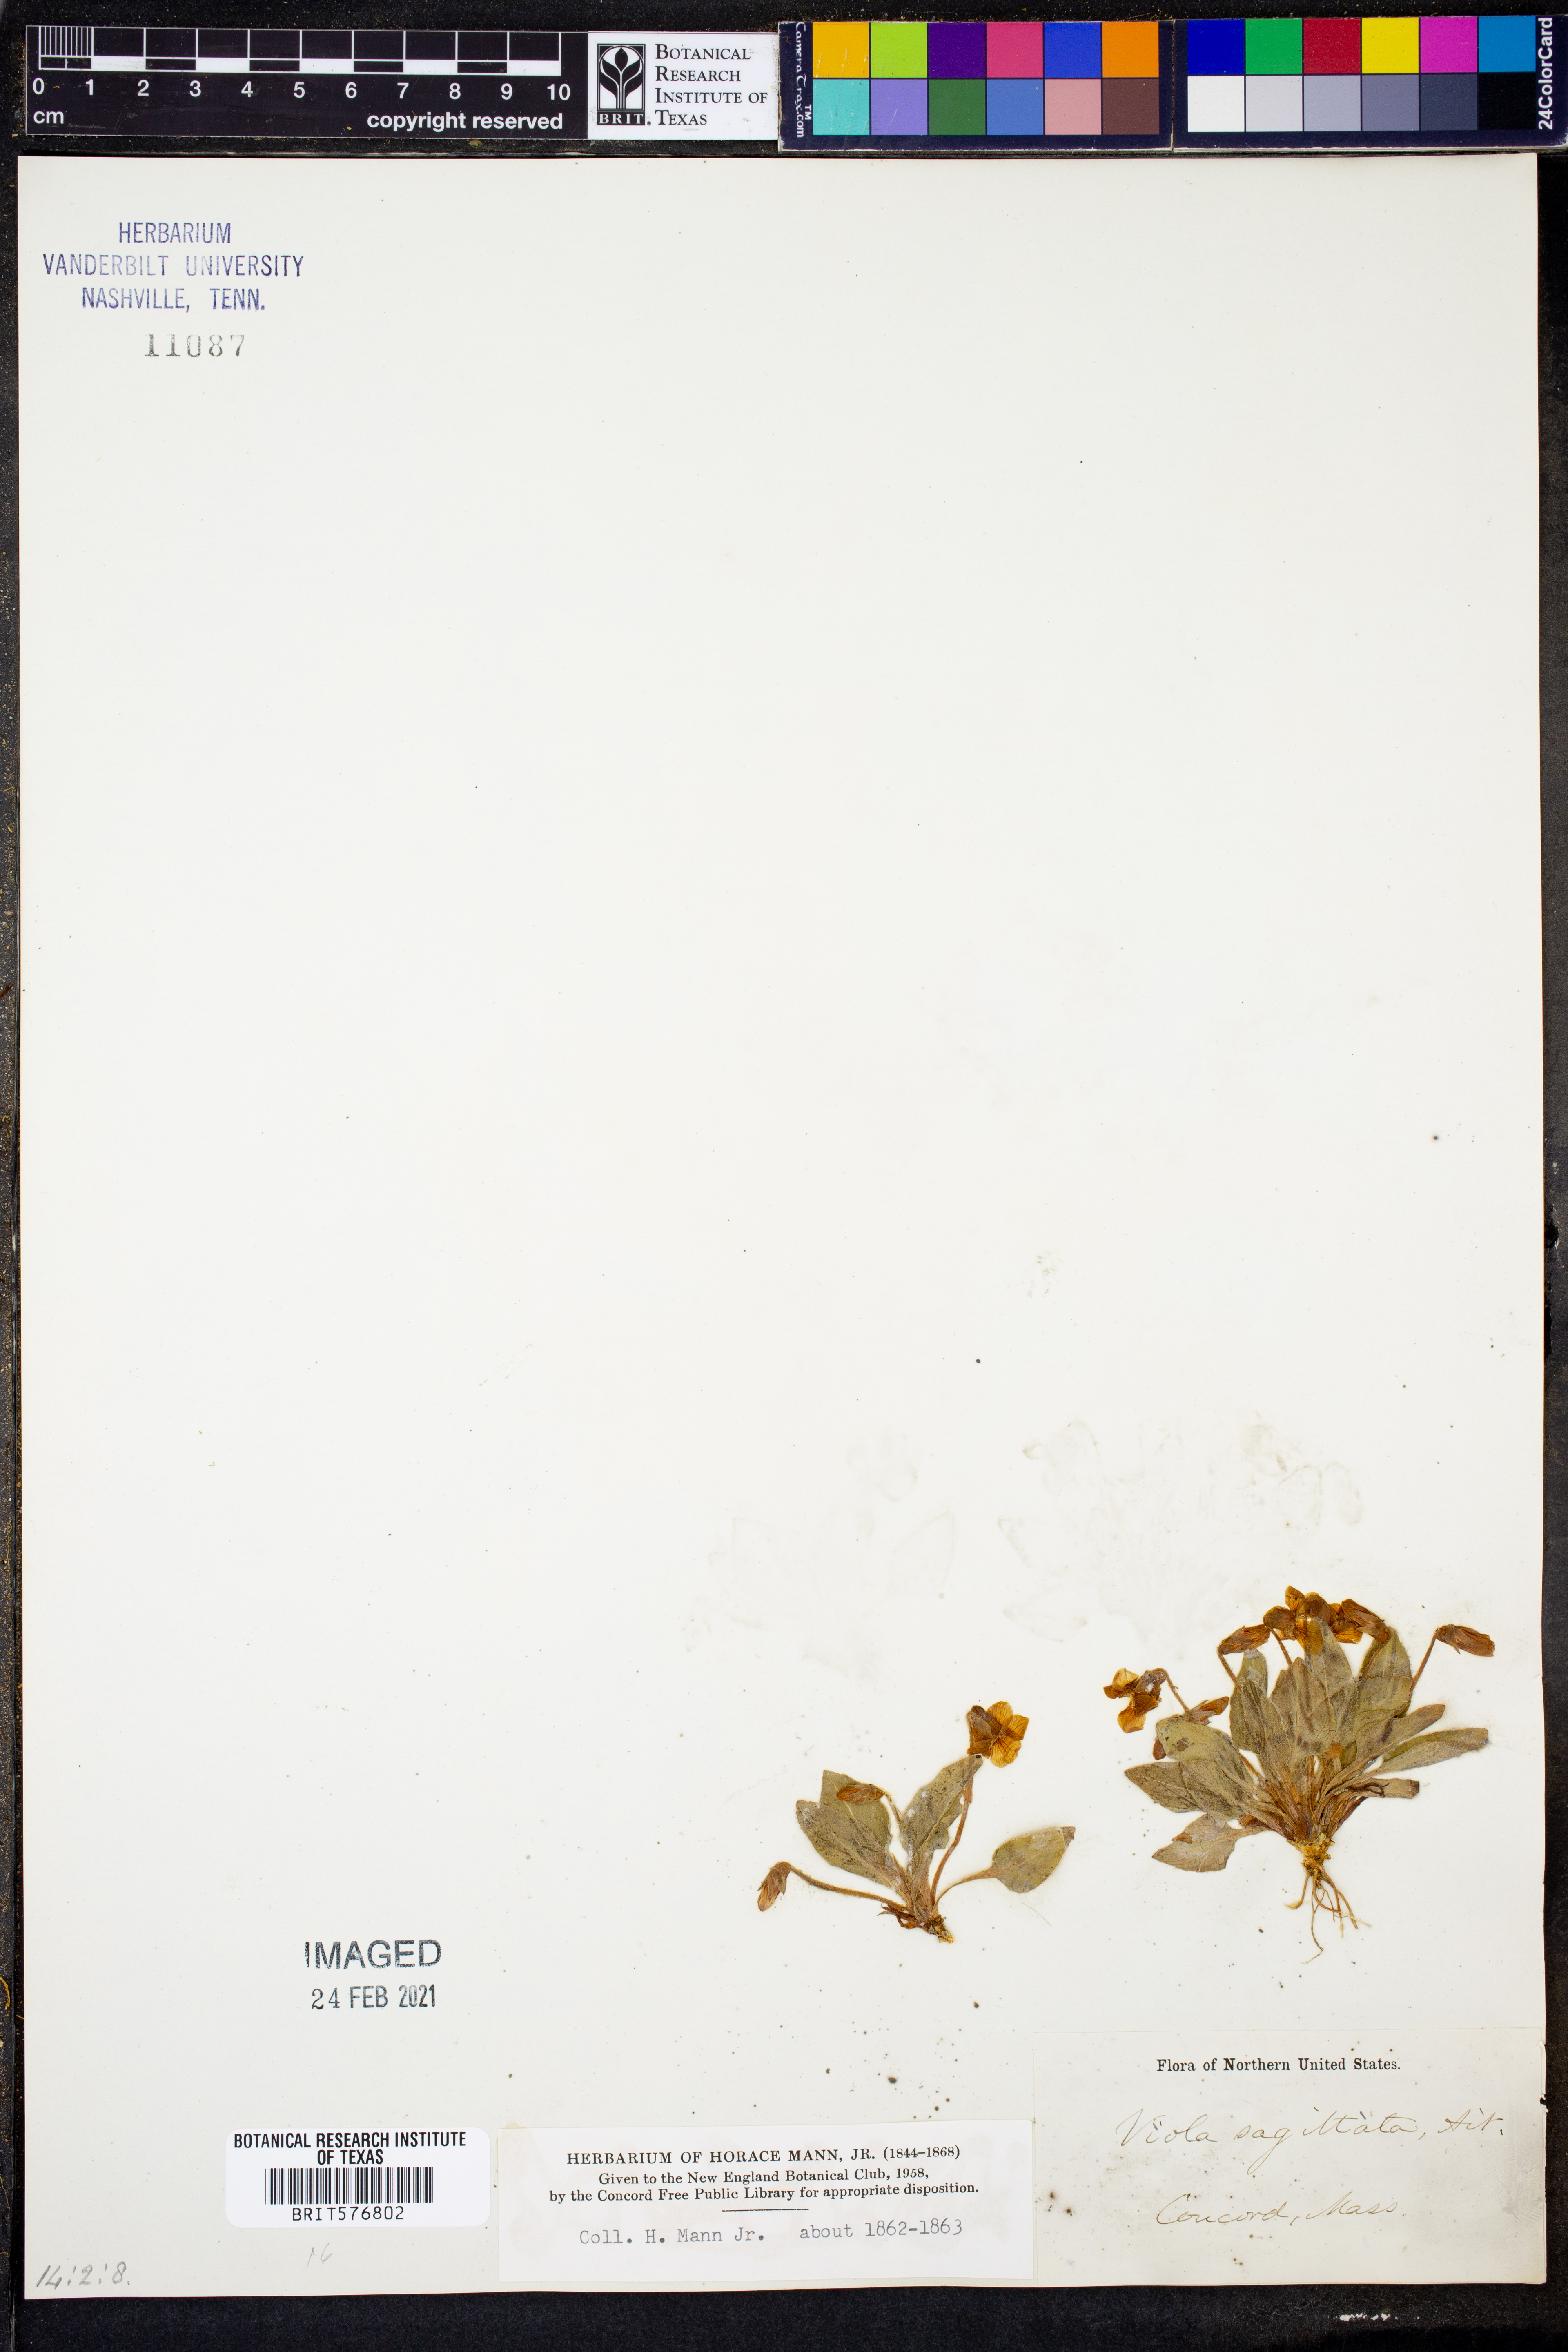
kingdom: Plantae
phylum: Tracheophyta
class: Magnoliopsida
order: Malpighiales
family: Violaceae
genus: Viola
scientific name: Viola sagittata
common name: Arrowhead violet
